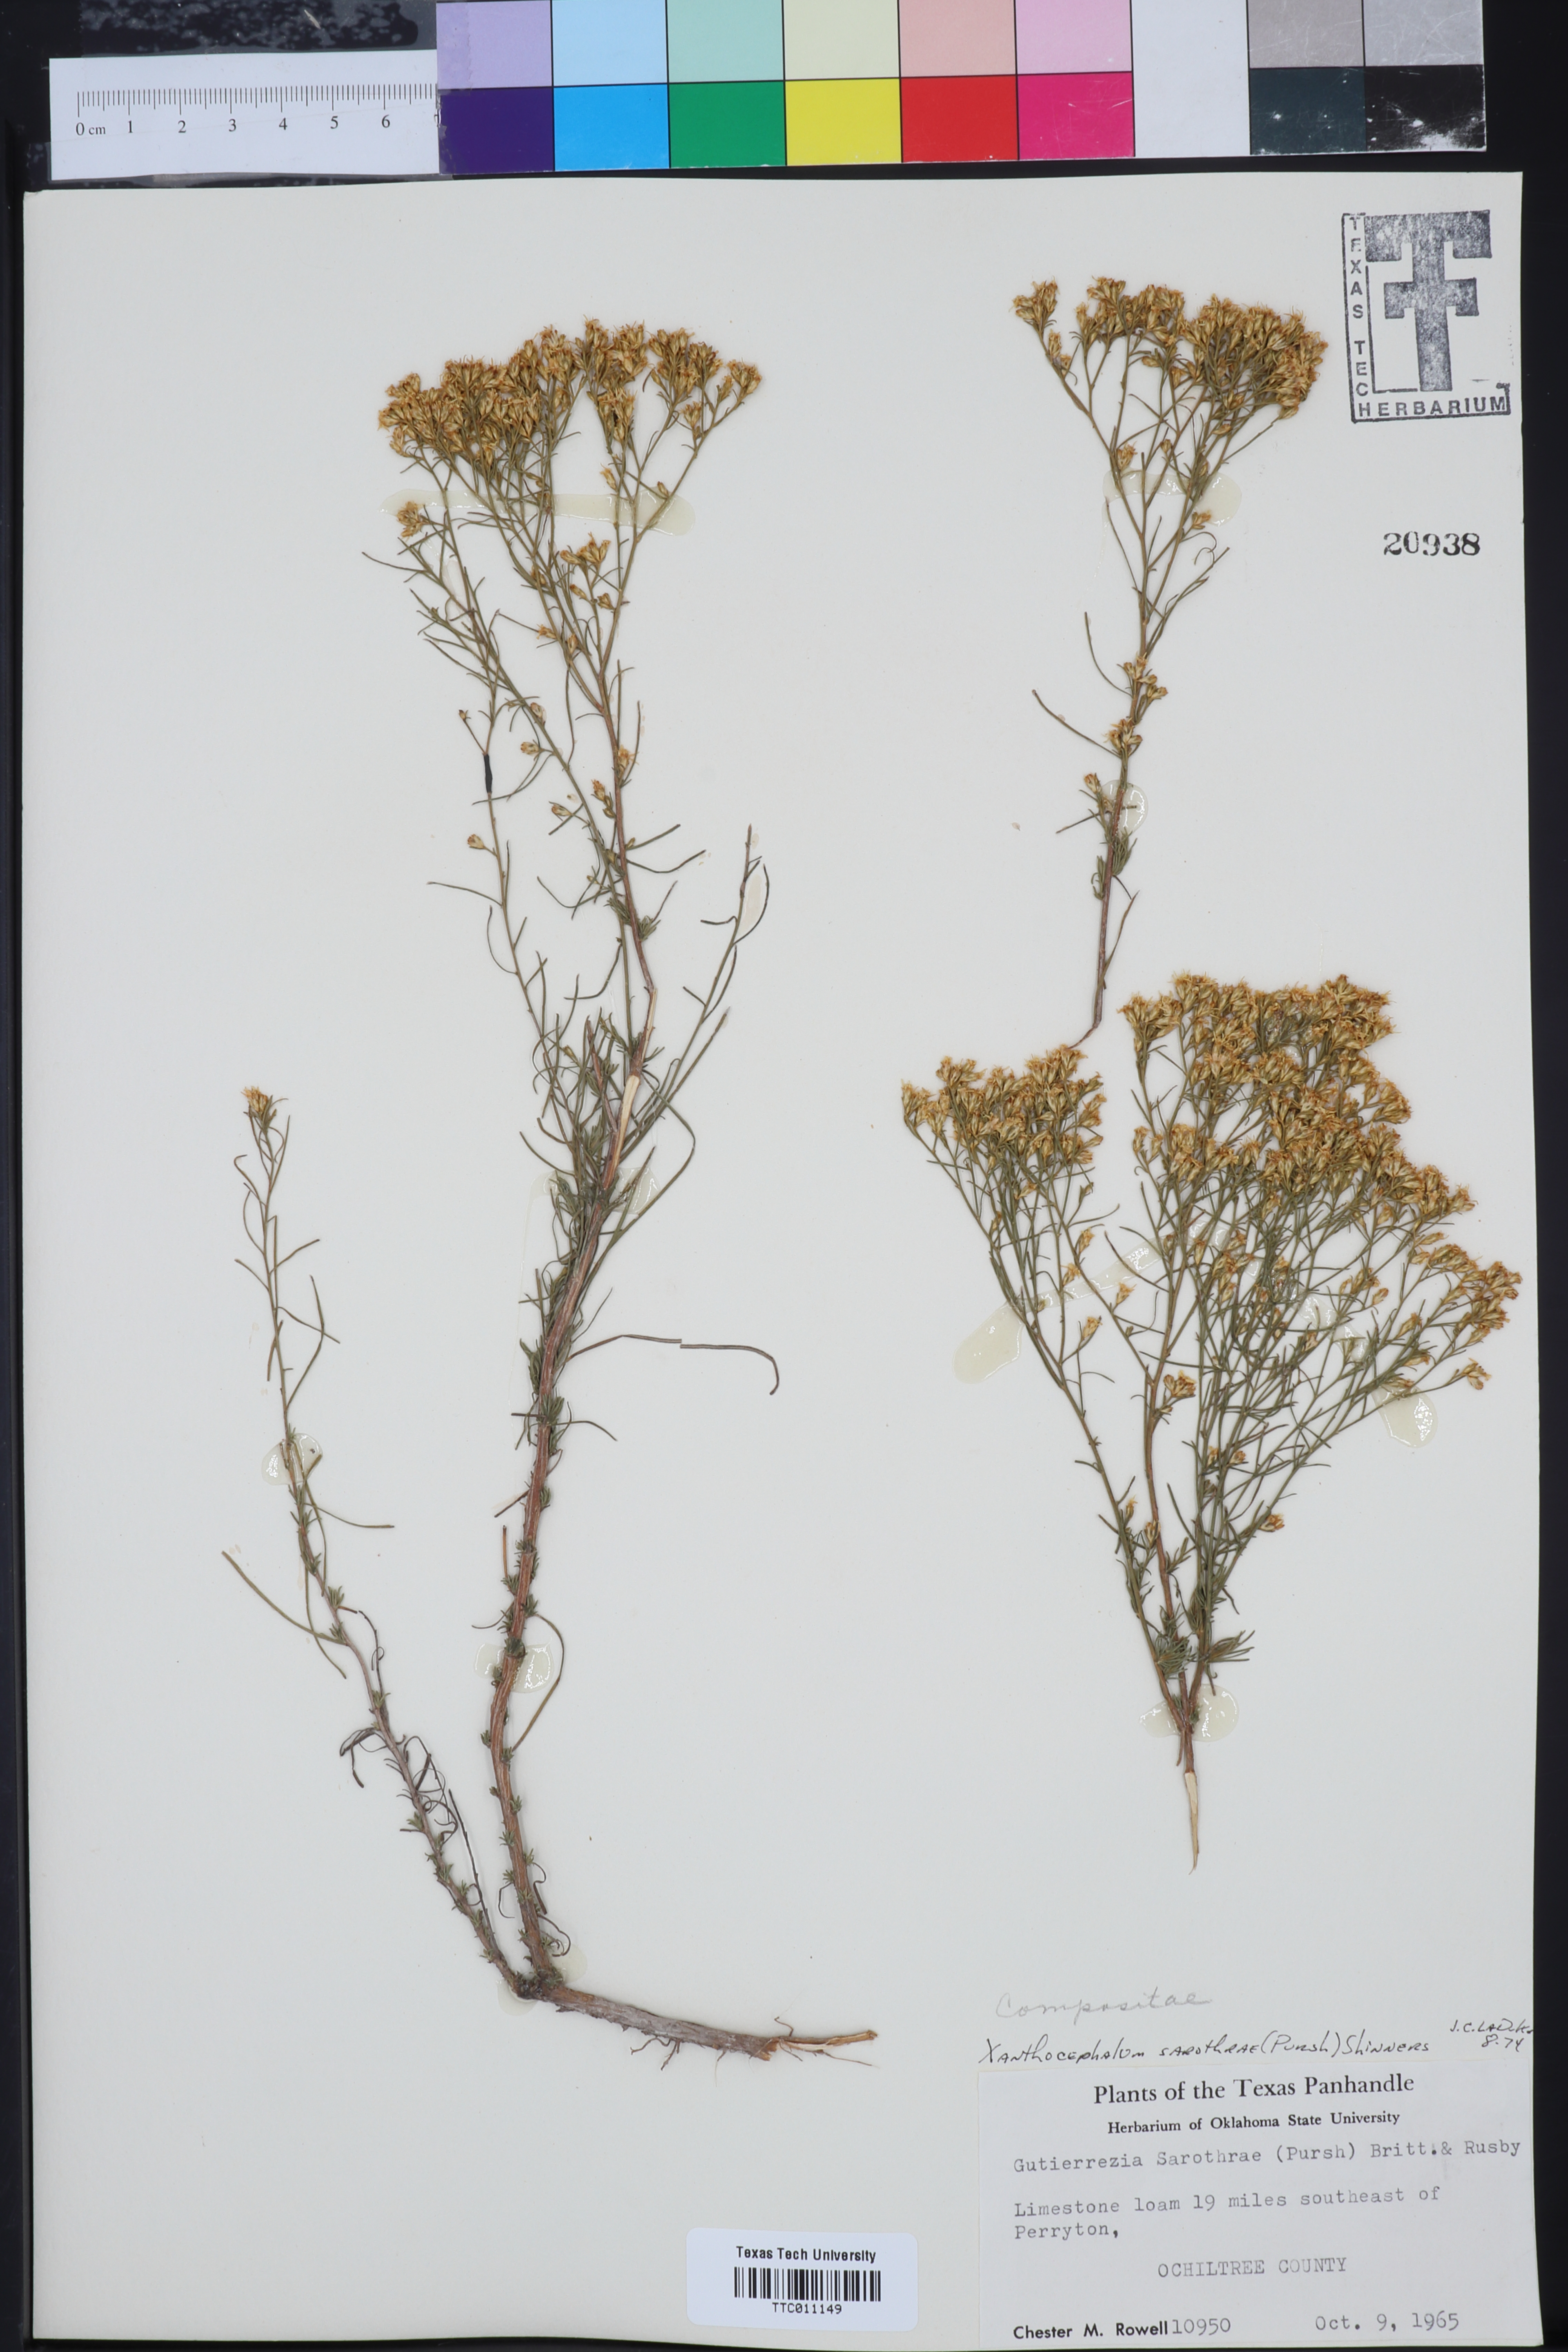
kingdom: Plantae
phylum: Tracheophyta
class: Magnoliopsida
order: Asterales
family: Asteraceae
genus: Gutierrezia
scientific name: Gutierrezia sarothrae
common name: Broom snakeweed
